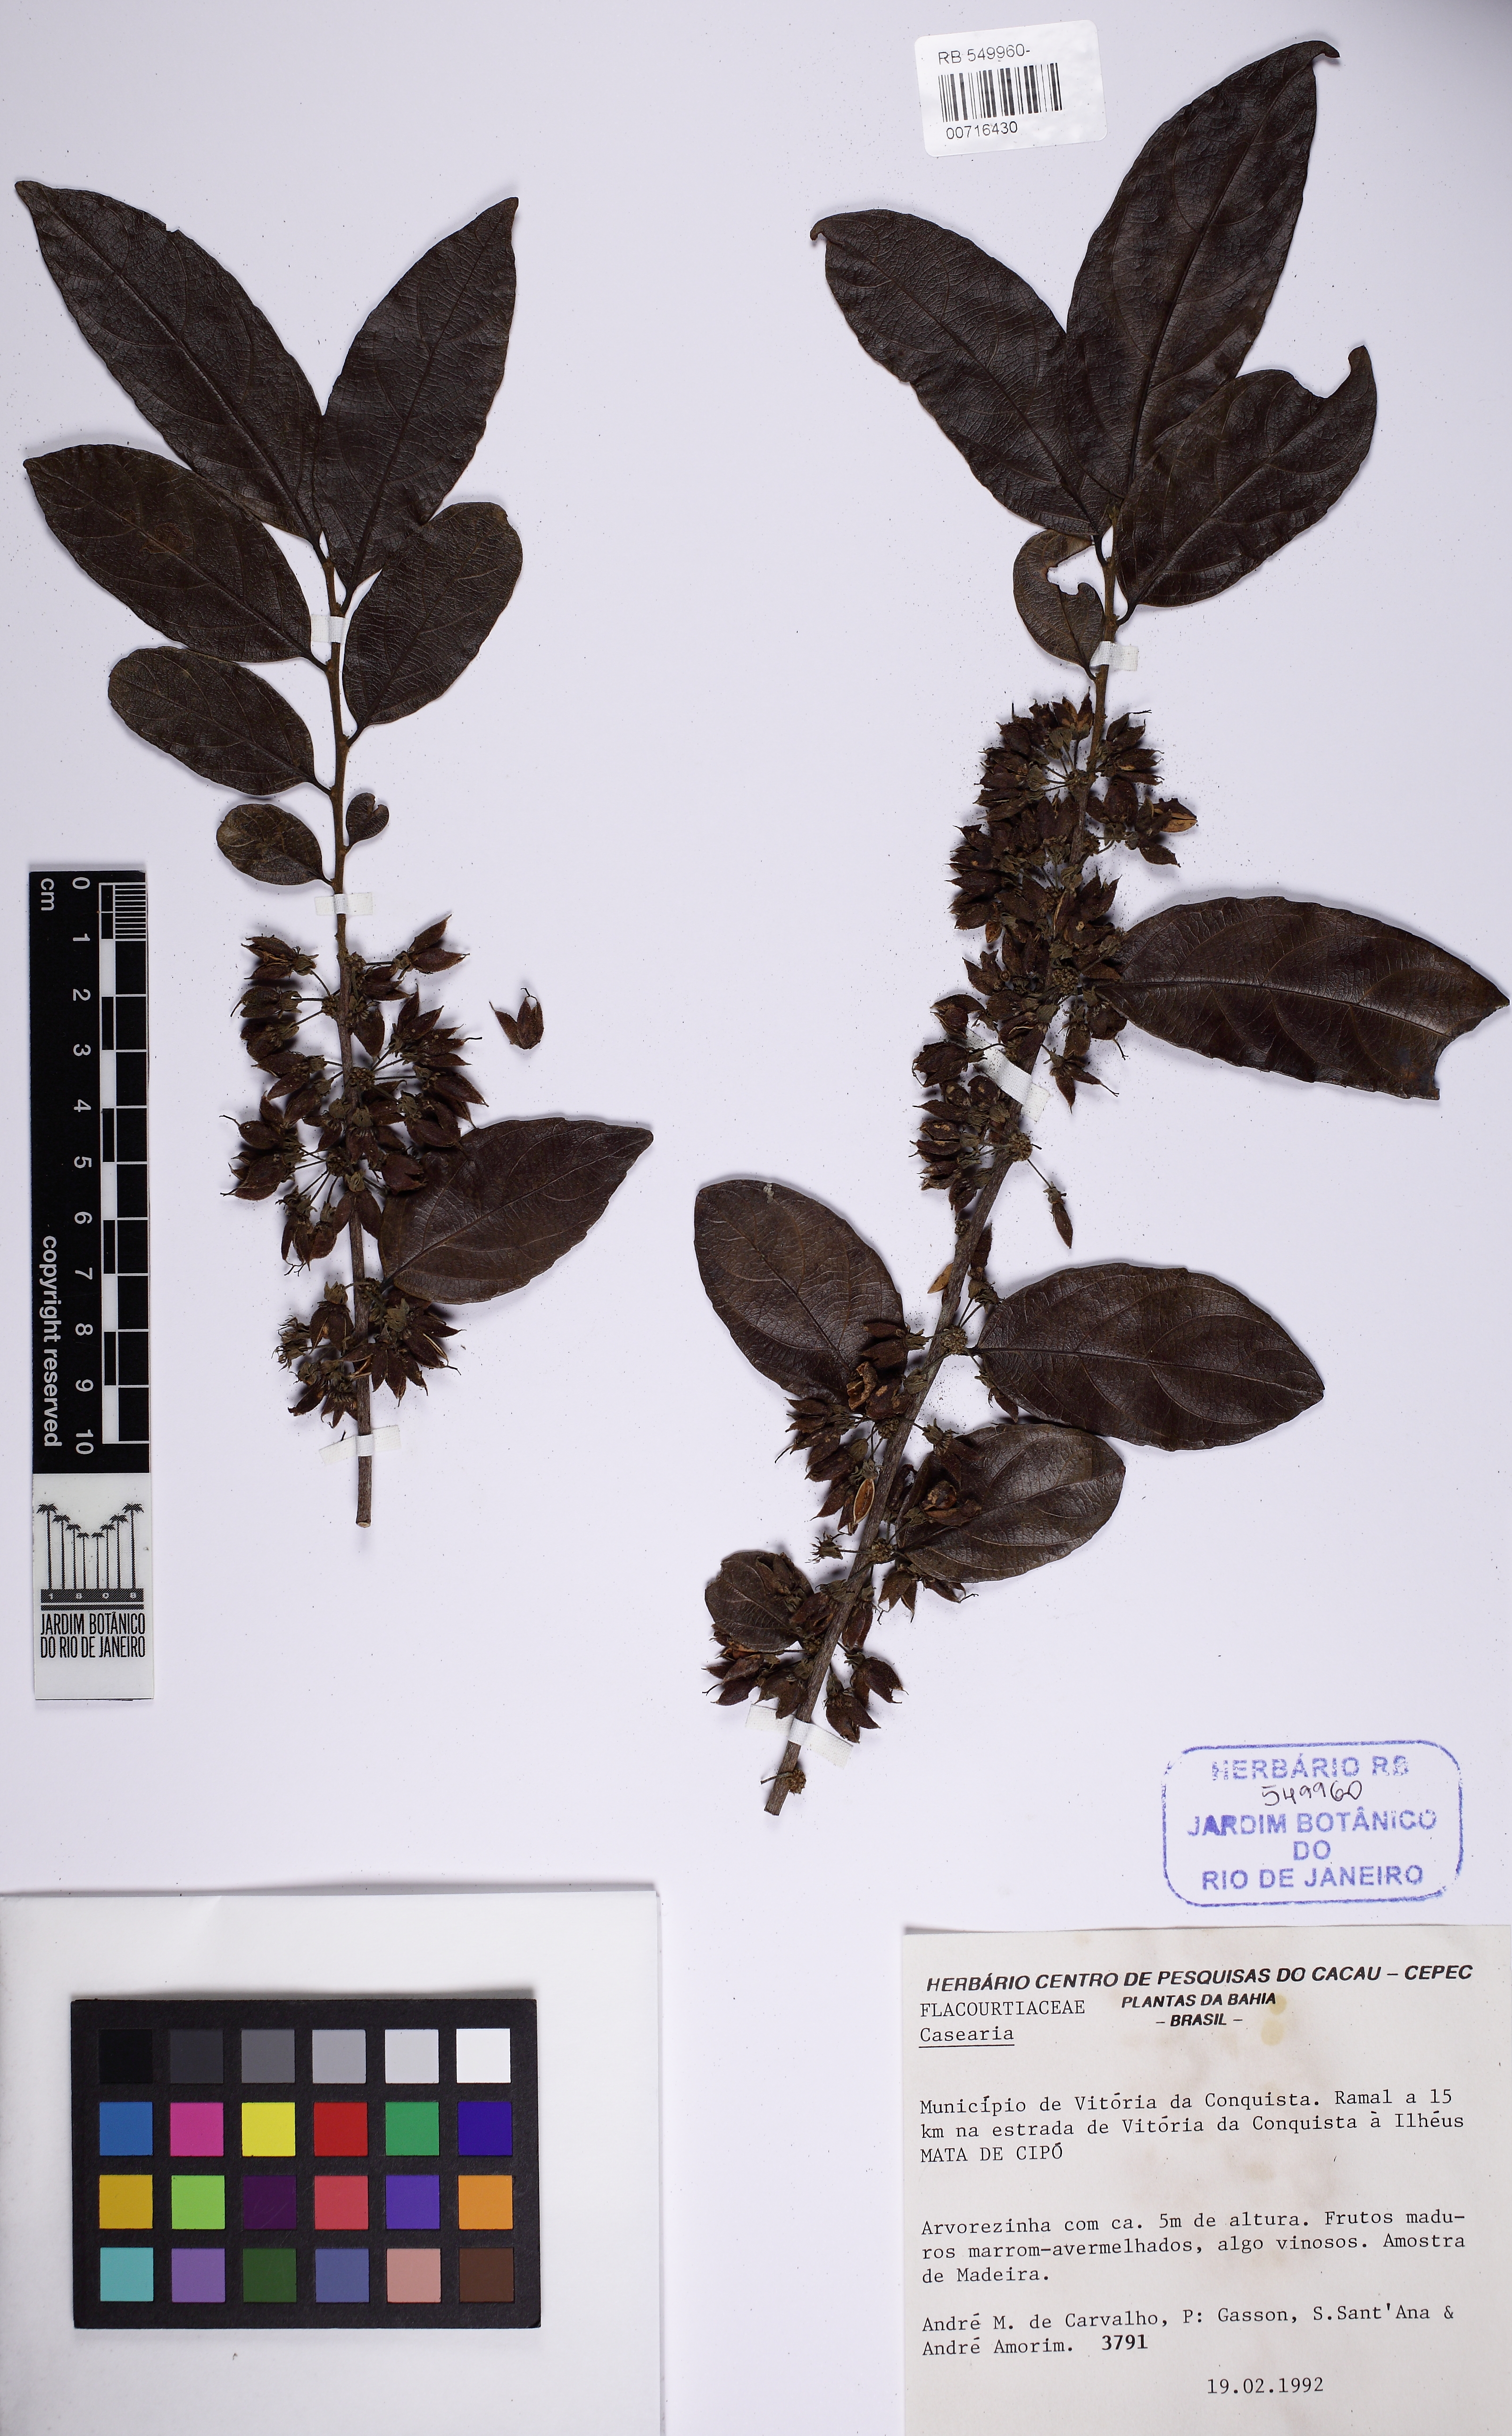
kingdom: Plantae
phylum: Tracheophyta
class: Magnoliopsida
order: Malpighiales
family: Salicaceae
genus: Piparea
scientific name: Piparea multiflora
